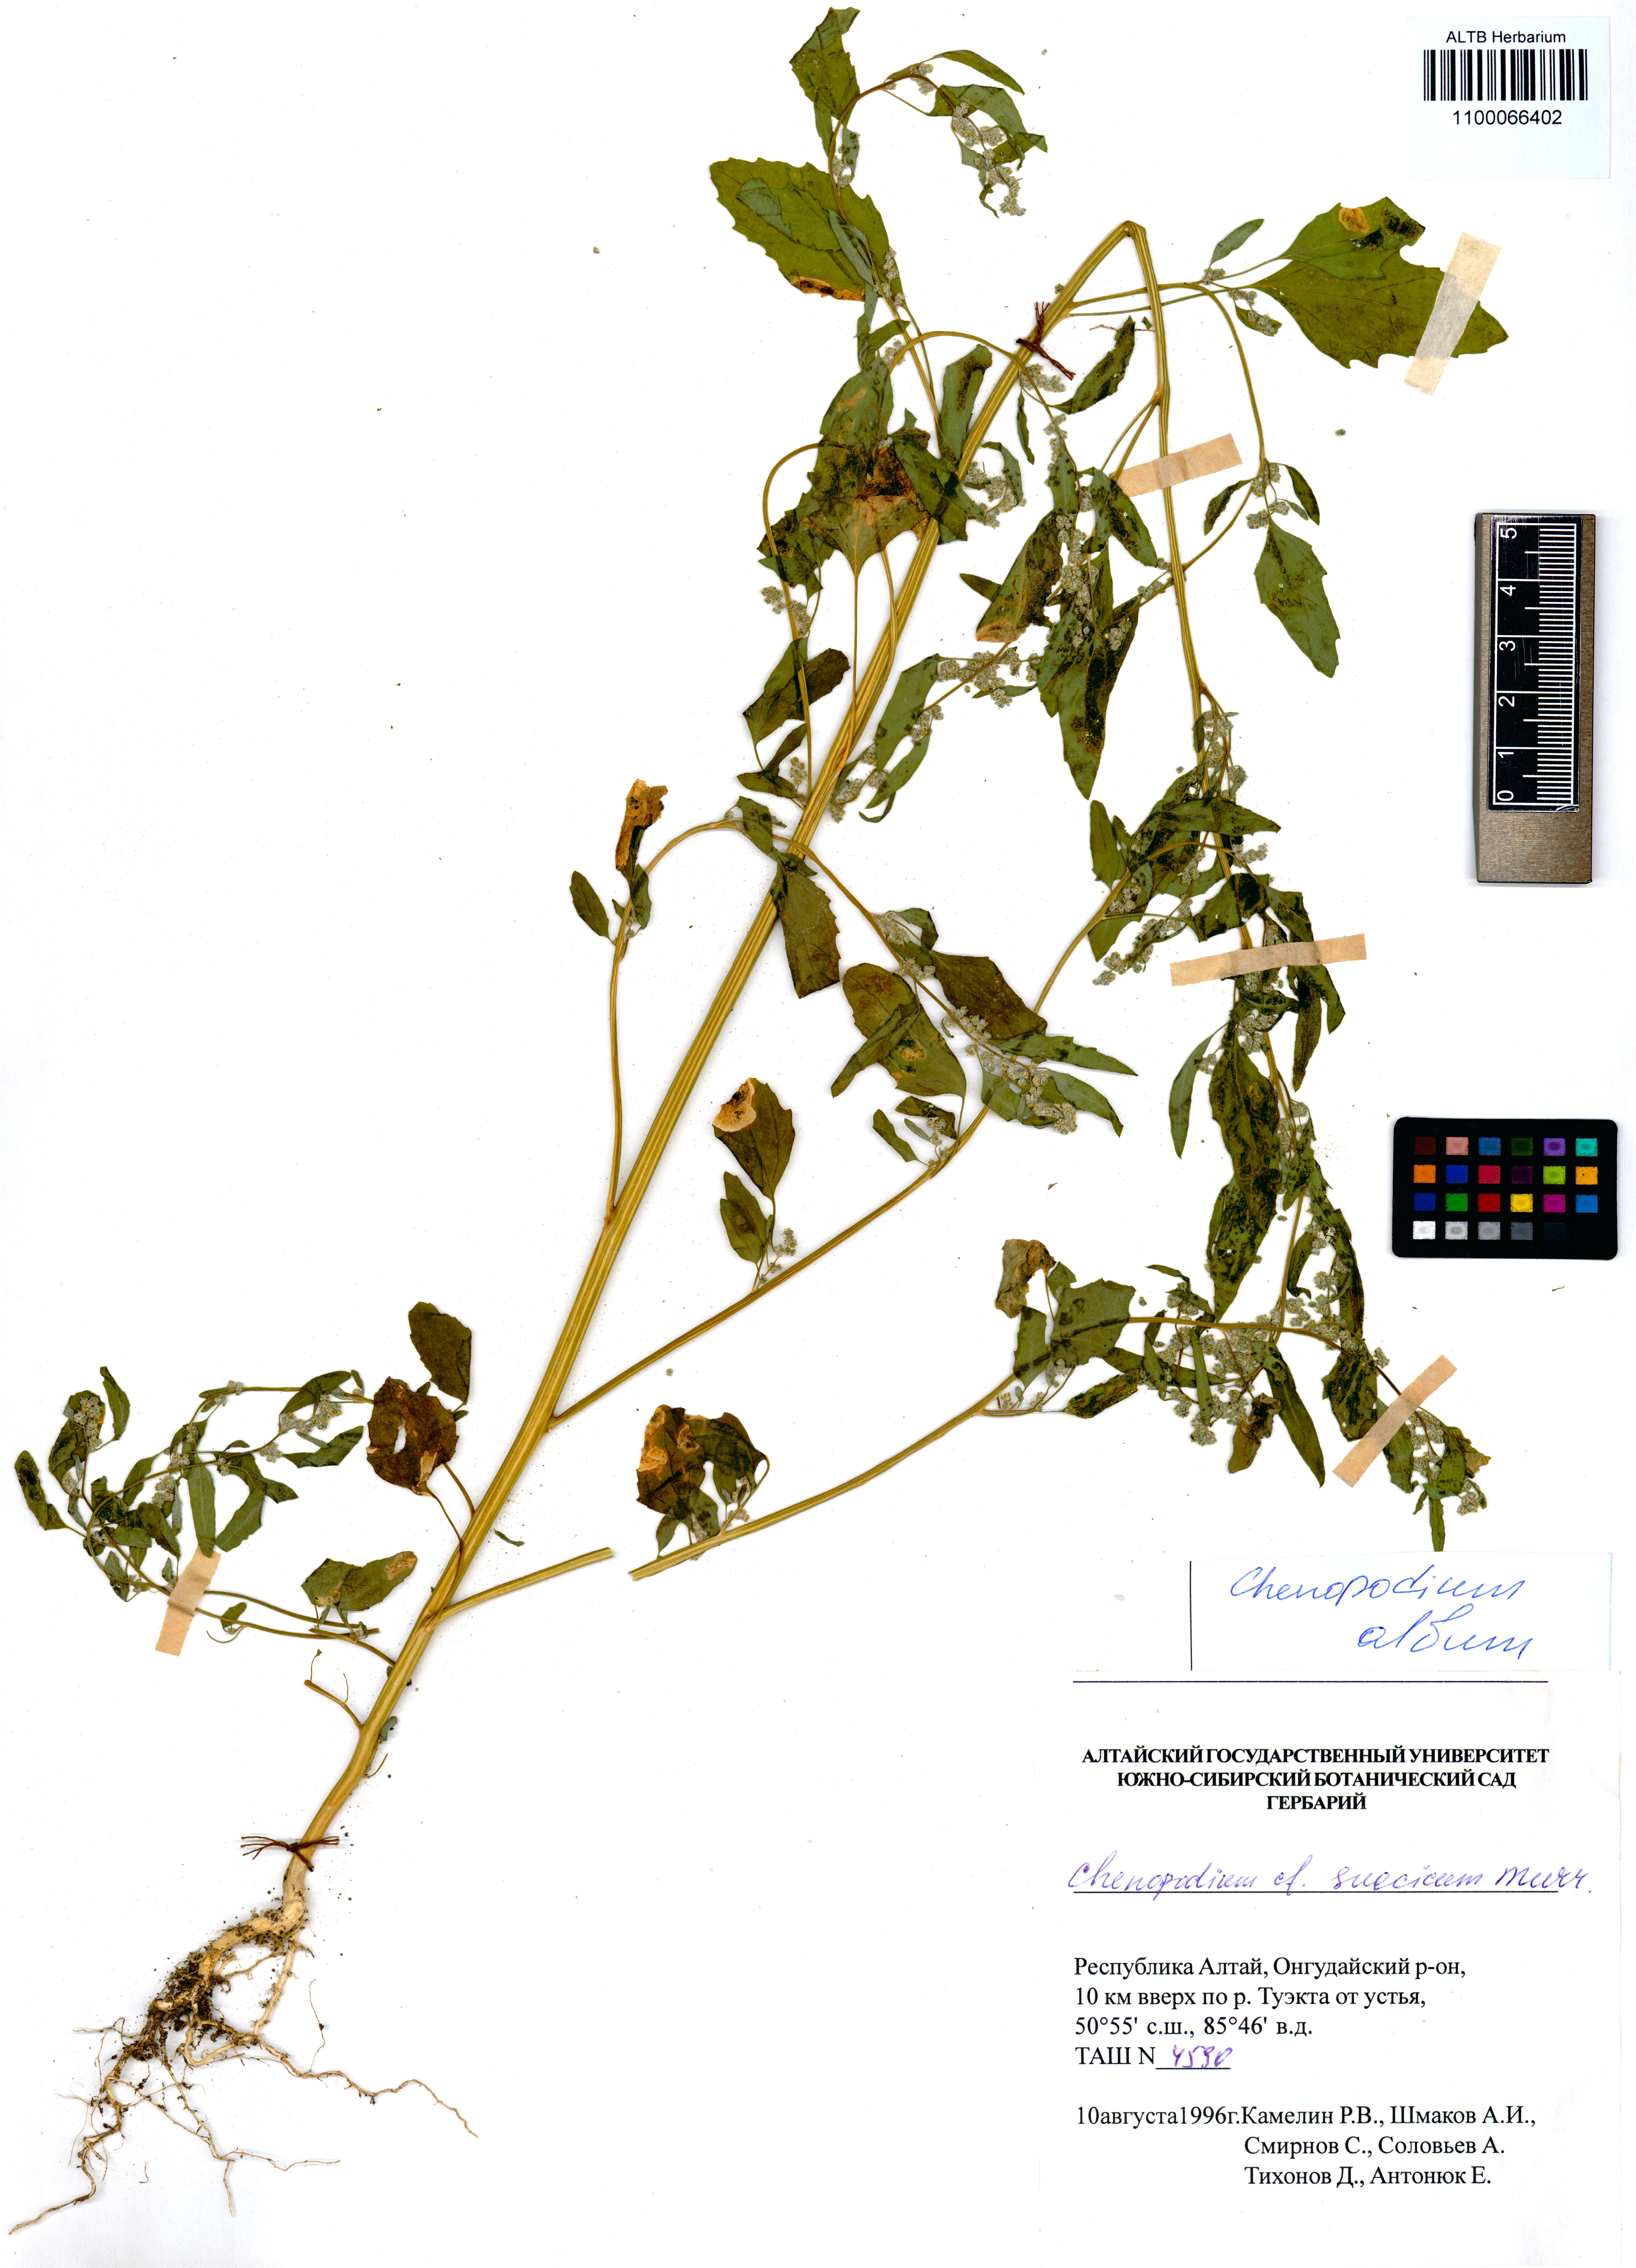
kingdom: Plantae
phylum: Tracheophyta
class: Magnoliopsida
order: Caryophyllales
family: Amaranthaceae
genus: Chenopodium
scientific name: Chenopodium album
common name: Fat-hen
